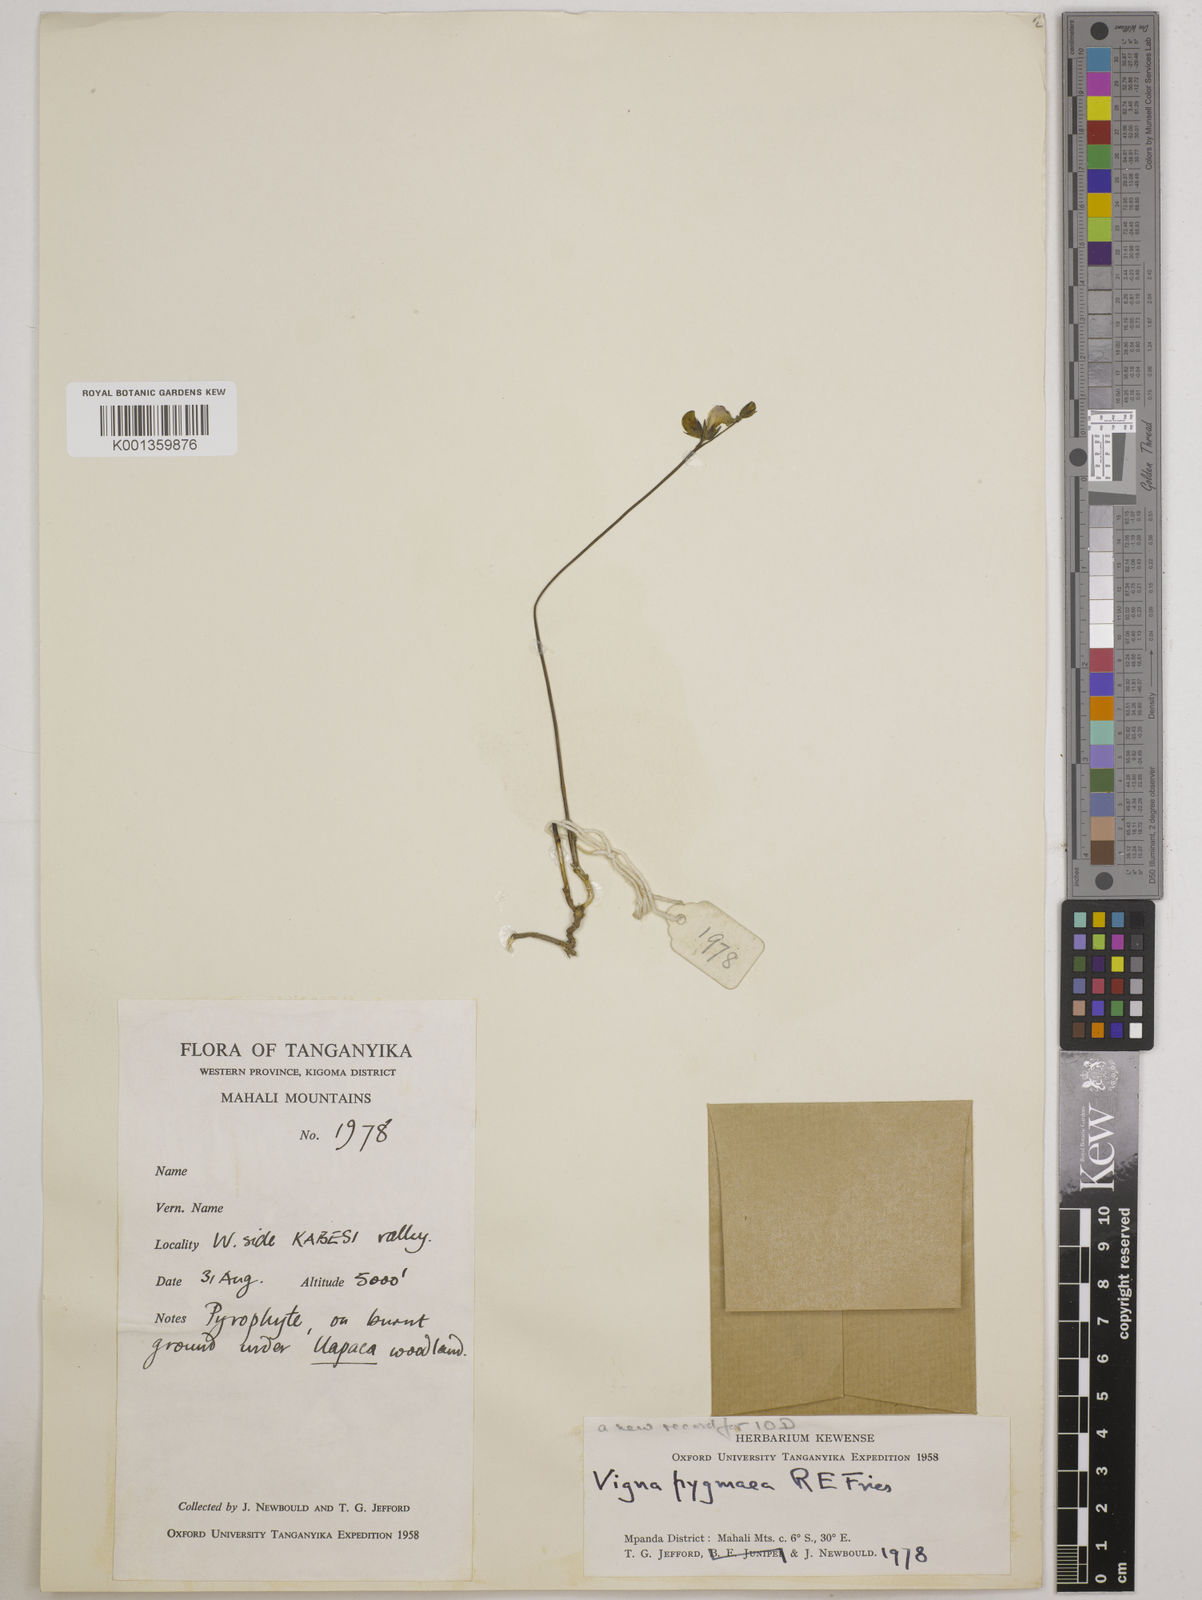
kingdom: Plantae
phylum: Tracheophyta
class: Magnoliopsida
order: Fabales
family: Fabaceae
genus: Vigna
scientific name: Vigna pygmaea
